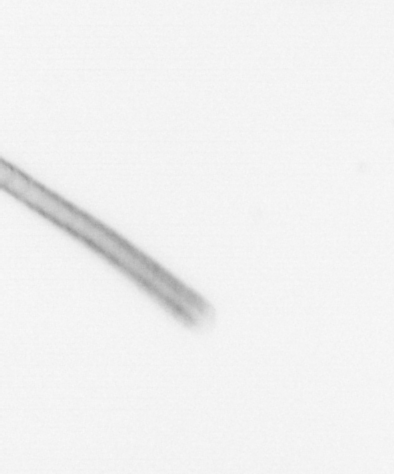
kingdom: Chromista
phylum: Ochrophyta
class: Bacillariophyceae
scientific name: Bacillariophyceae
